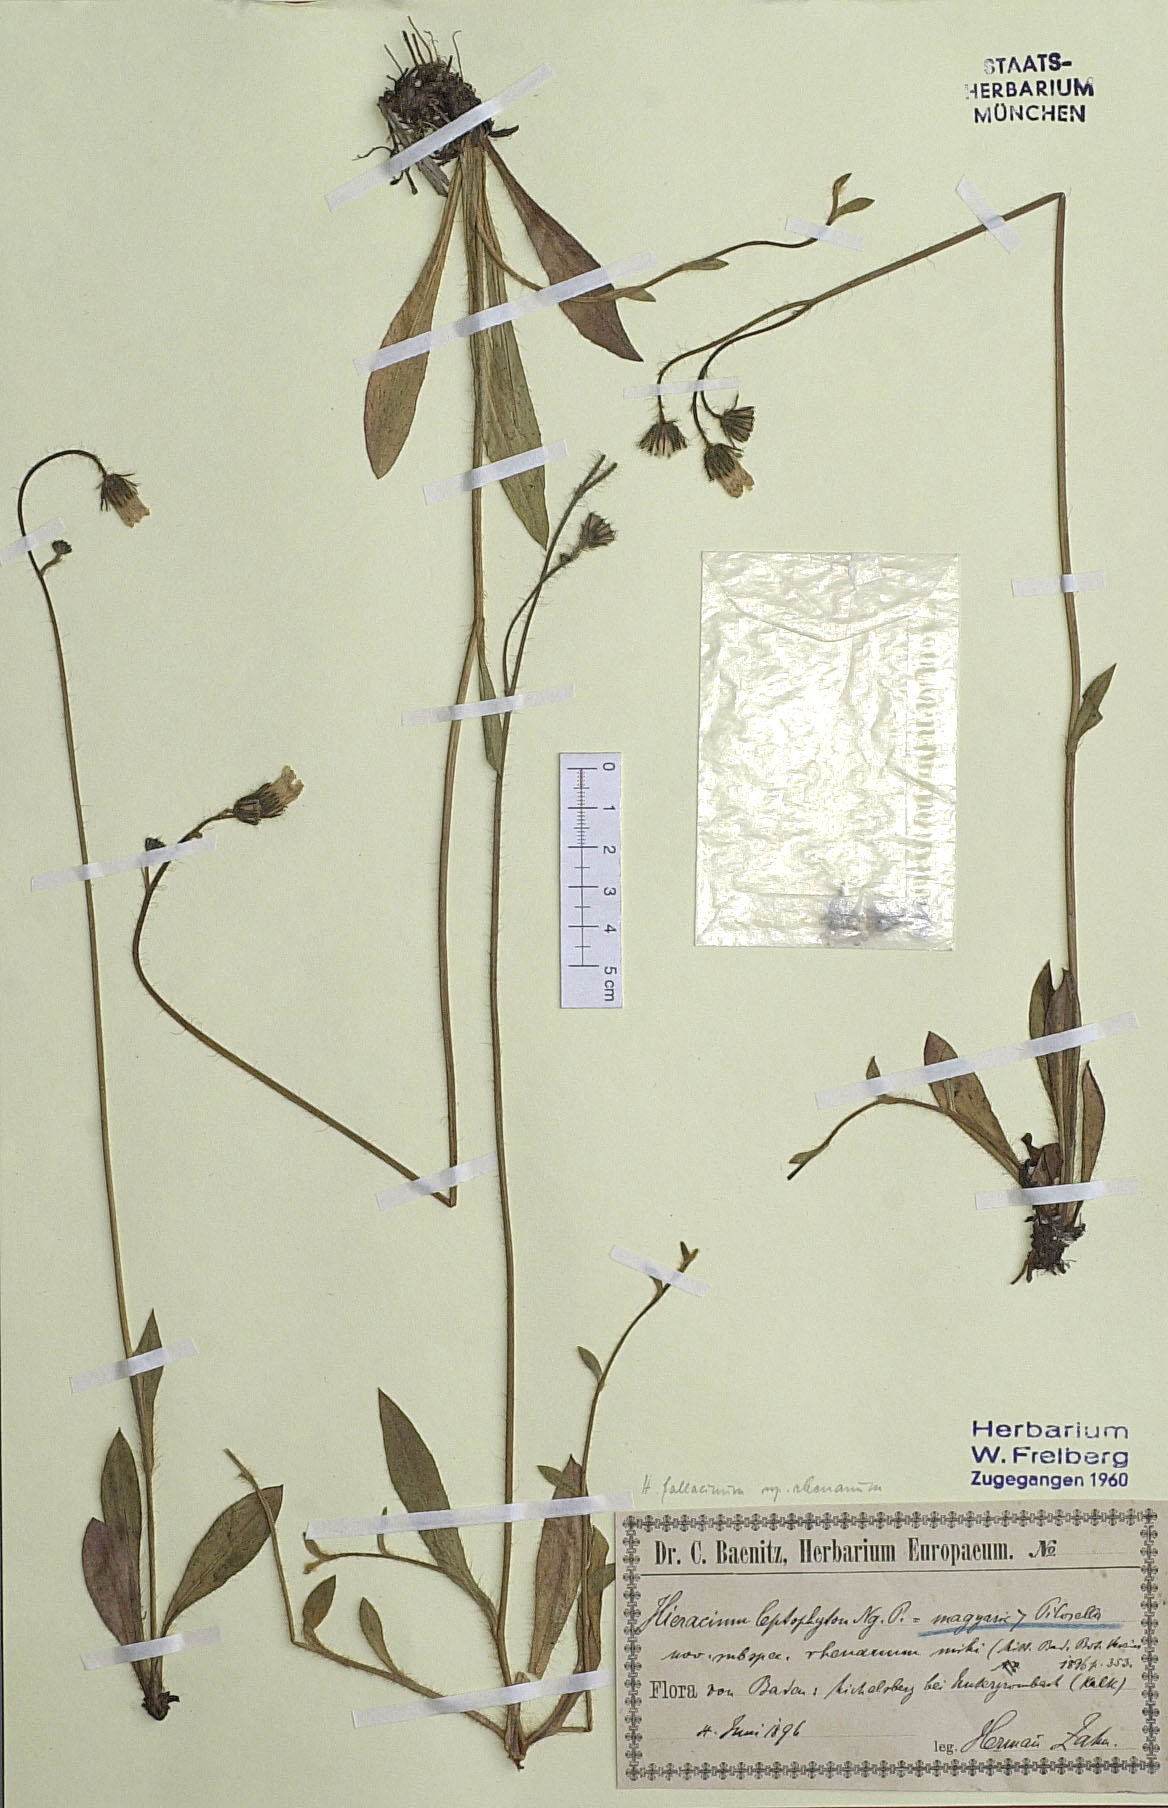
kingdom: Plantae
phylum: Tracheophyta
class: Magnoliopsida
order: Asterales
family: Asteraceae
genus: Pilosella
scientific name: Pilosella leptophyton
